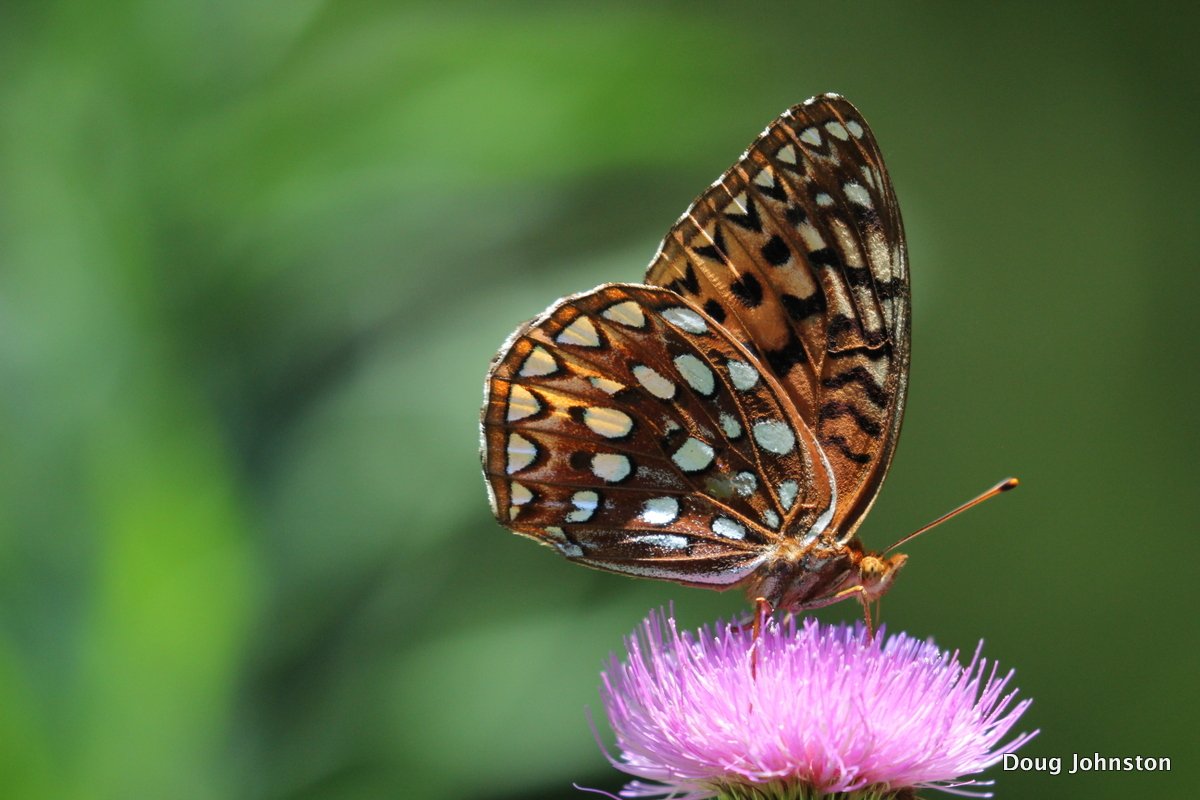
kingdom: Animalia
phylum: Arthropoda
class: Insecta
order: Lepidoptera
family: Nymphalidae
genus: Speyeria
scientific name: Speyeria aphrodite
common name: Aphrodite Fritillary
